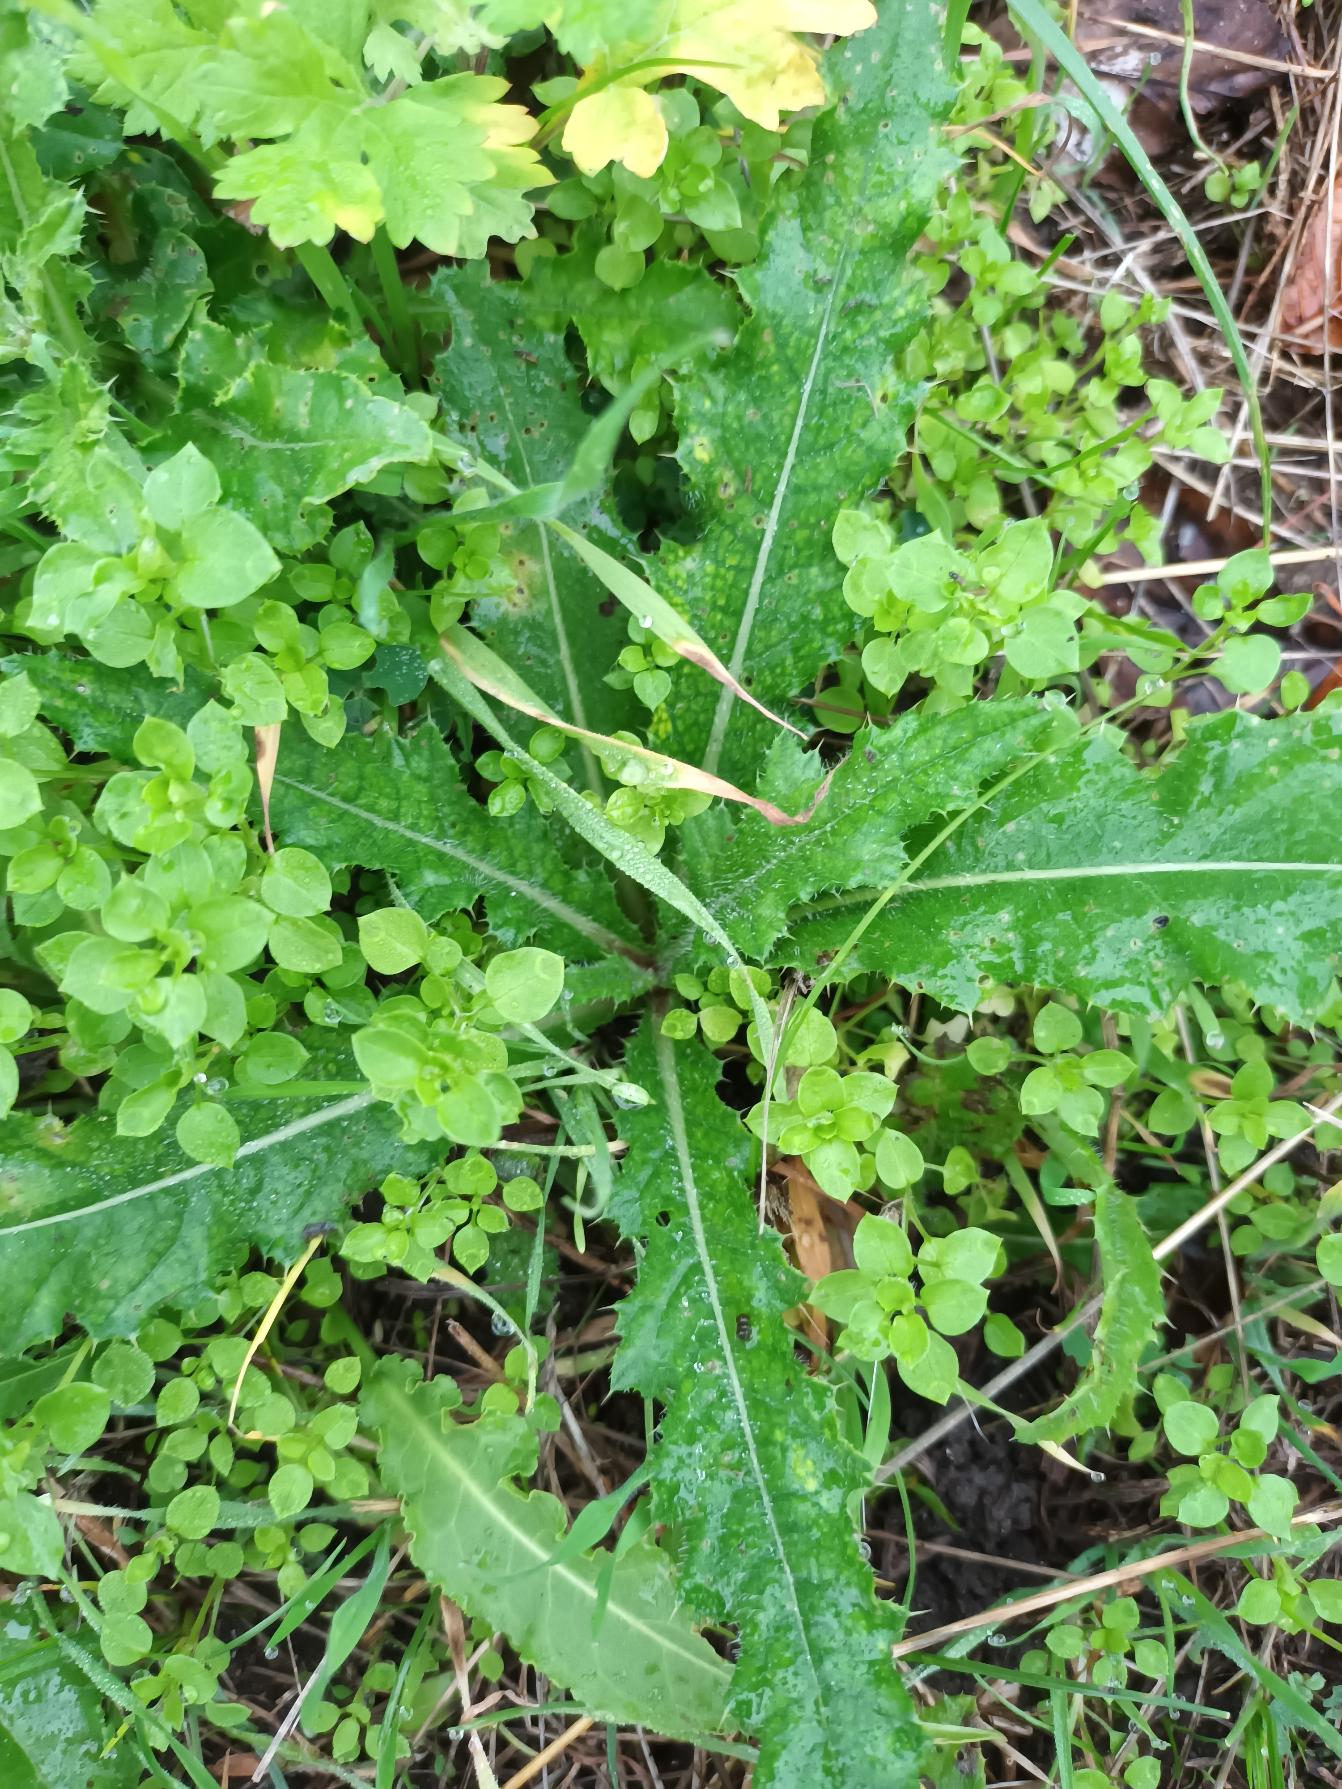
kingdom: Plantae
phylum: Tracheophyta
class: Magnoliopsida
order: Asterales
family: Asteraceae
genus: Cirsium
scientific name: Cirsium arvense
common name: Ager-tidsel
